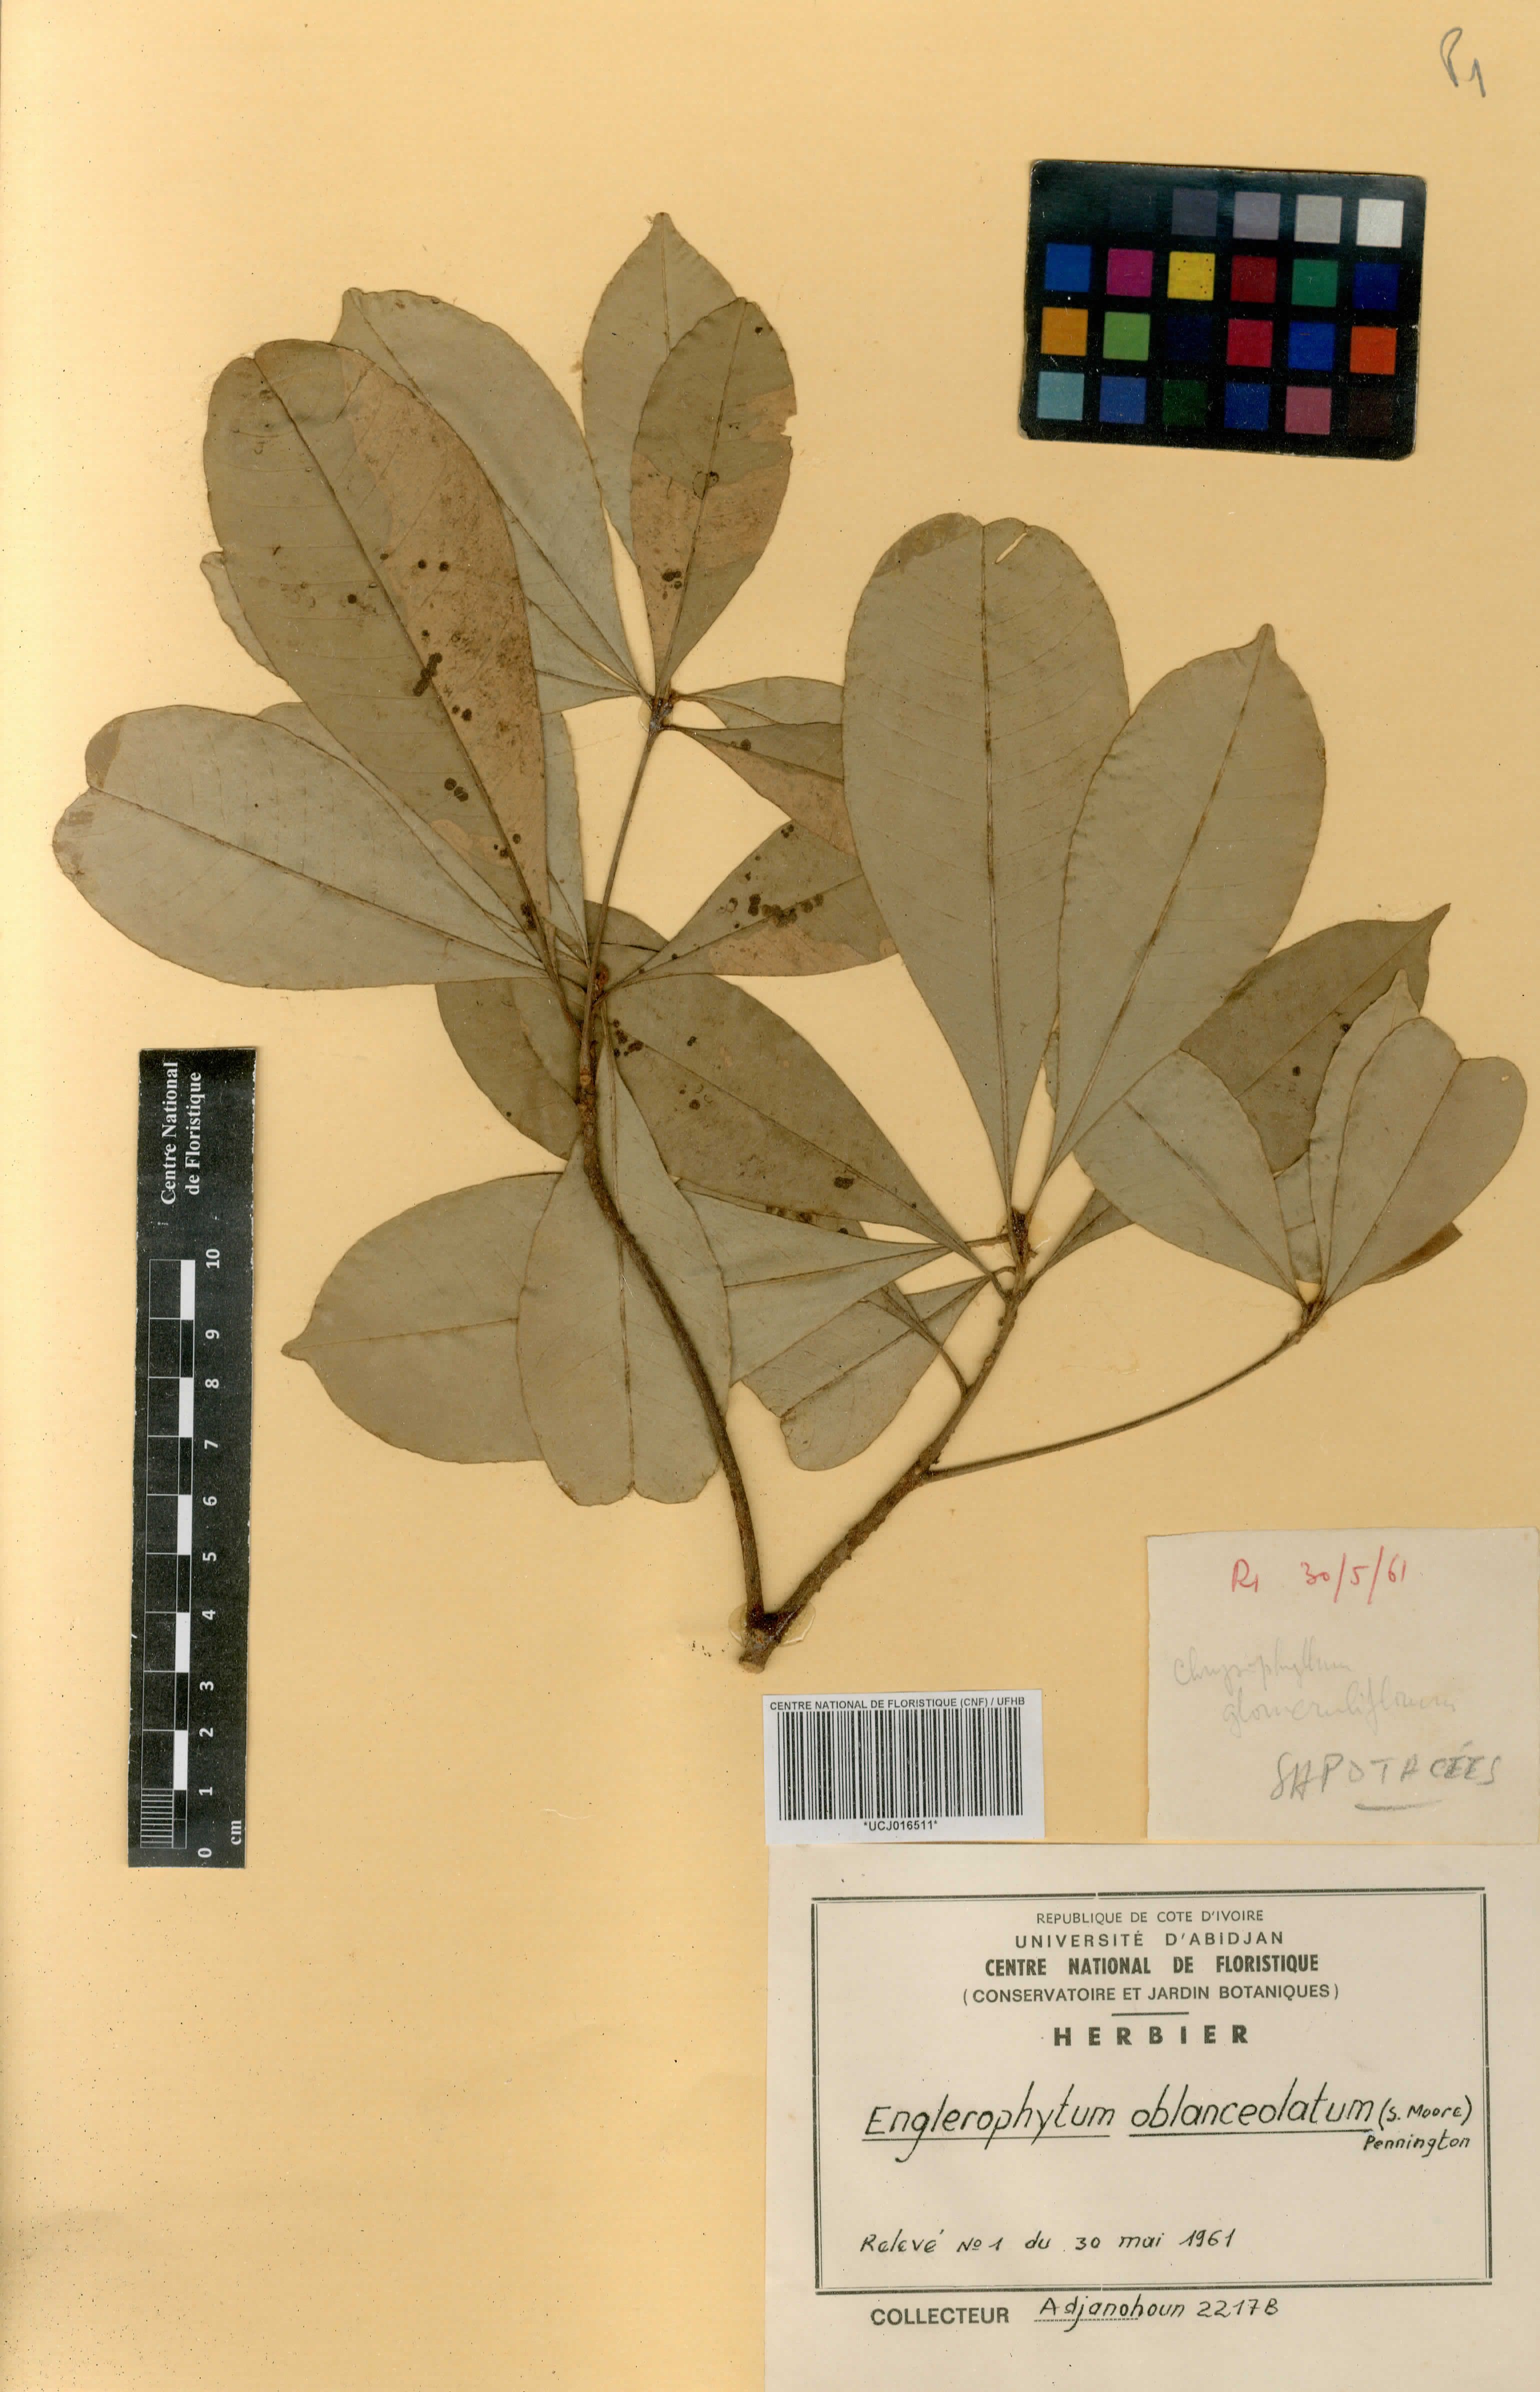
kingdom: Plantae
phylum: Tracheophyta
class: Magnoliopsida
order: Ericales
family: Sapotaceae
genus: Englerophytum
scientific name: Englerophytum oblanceolatum
